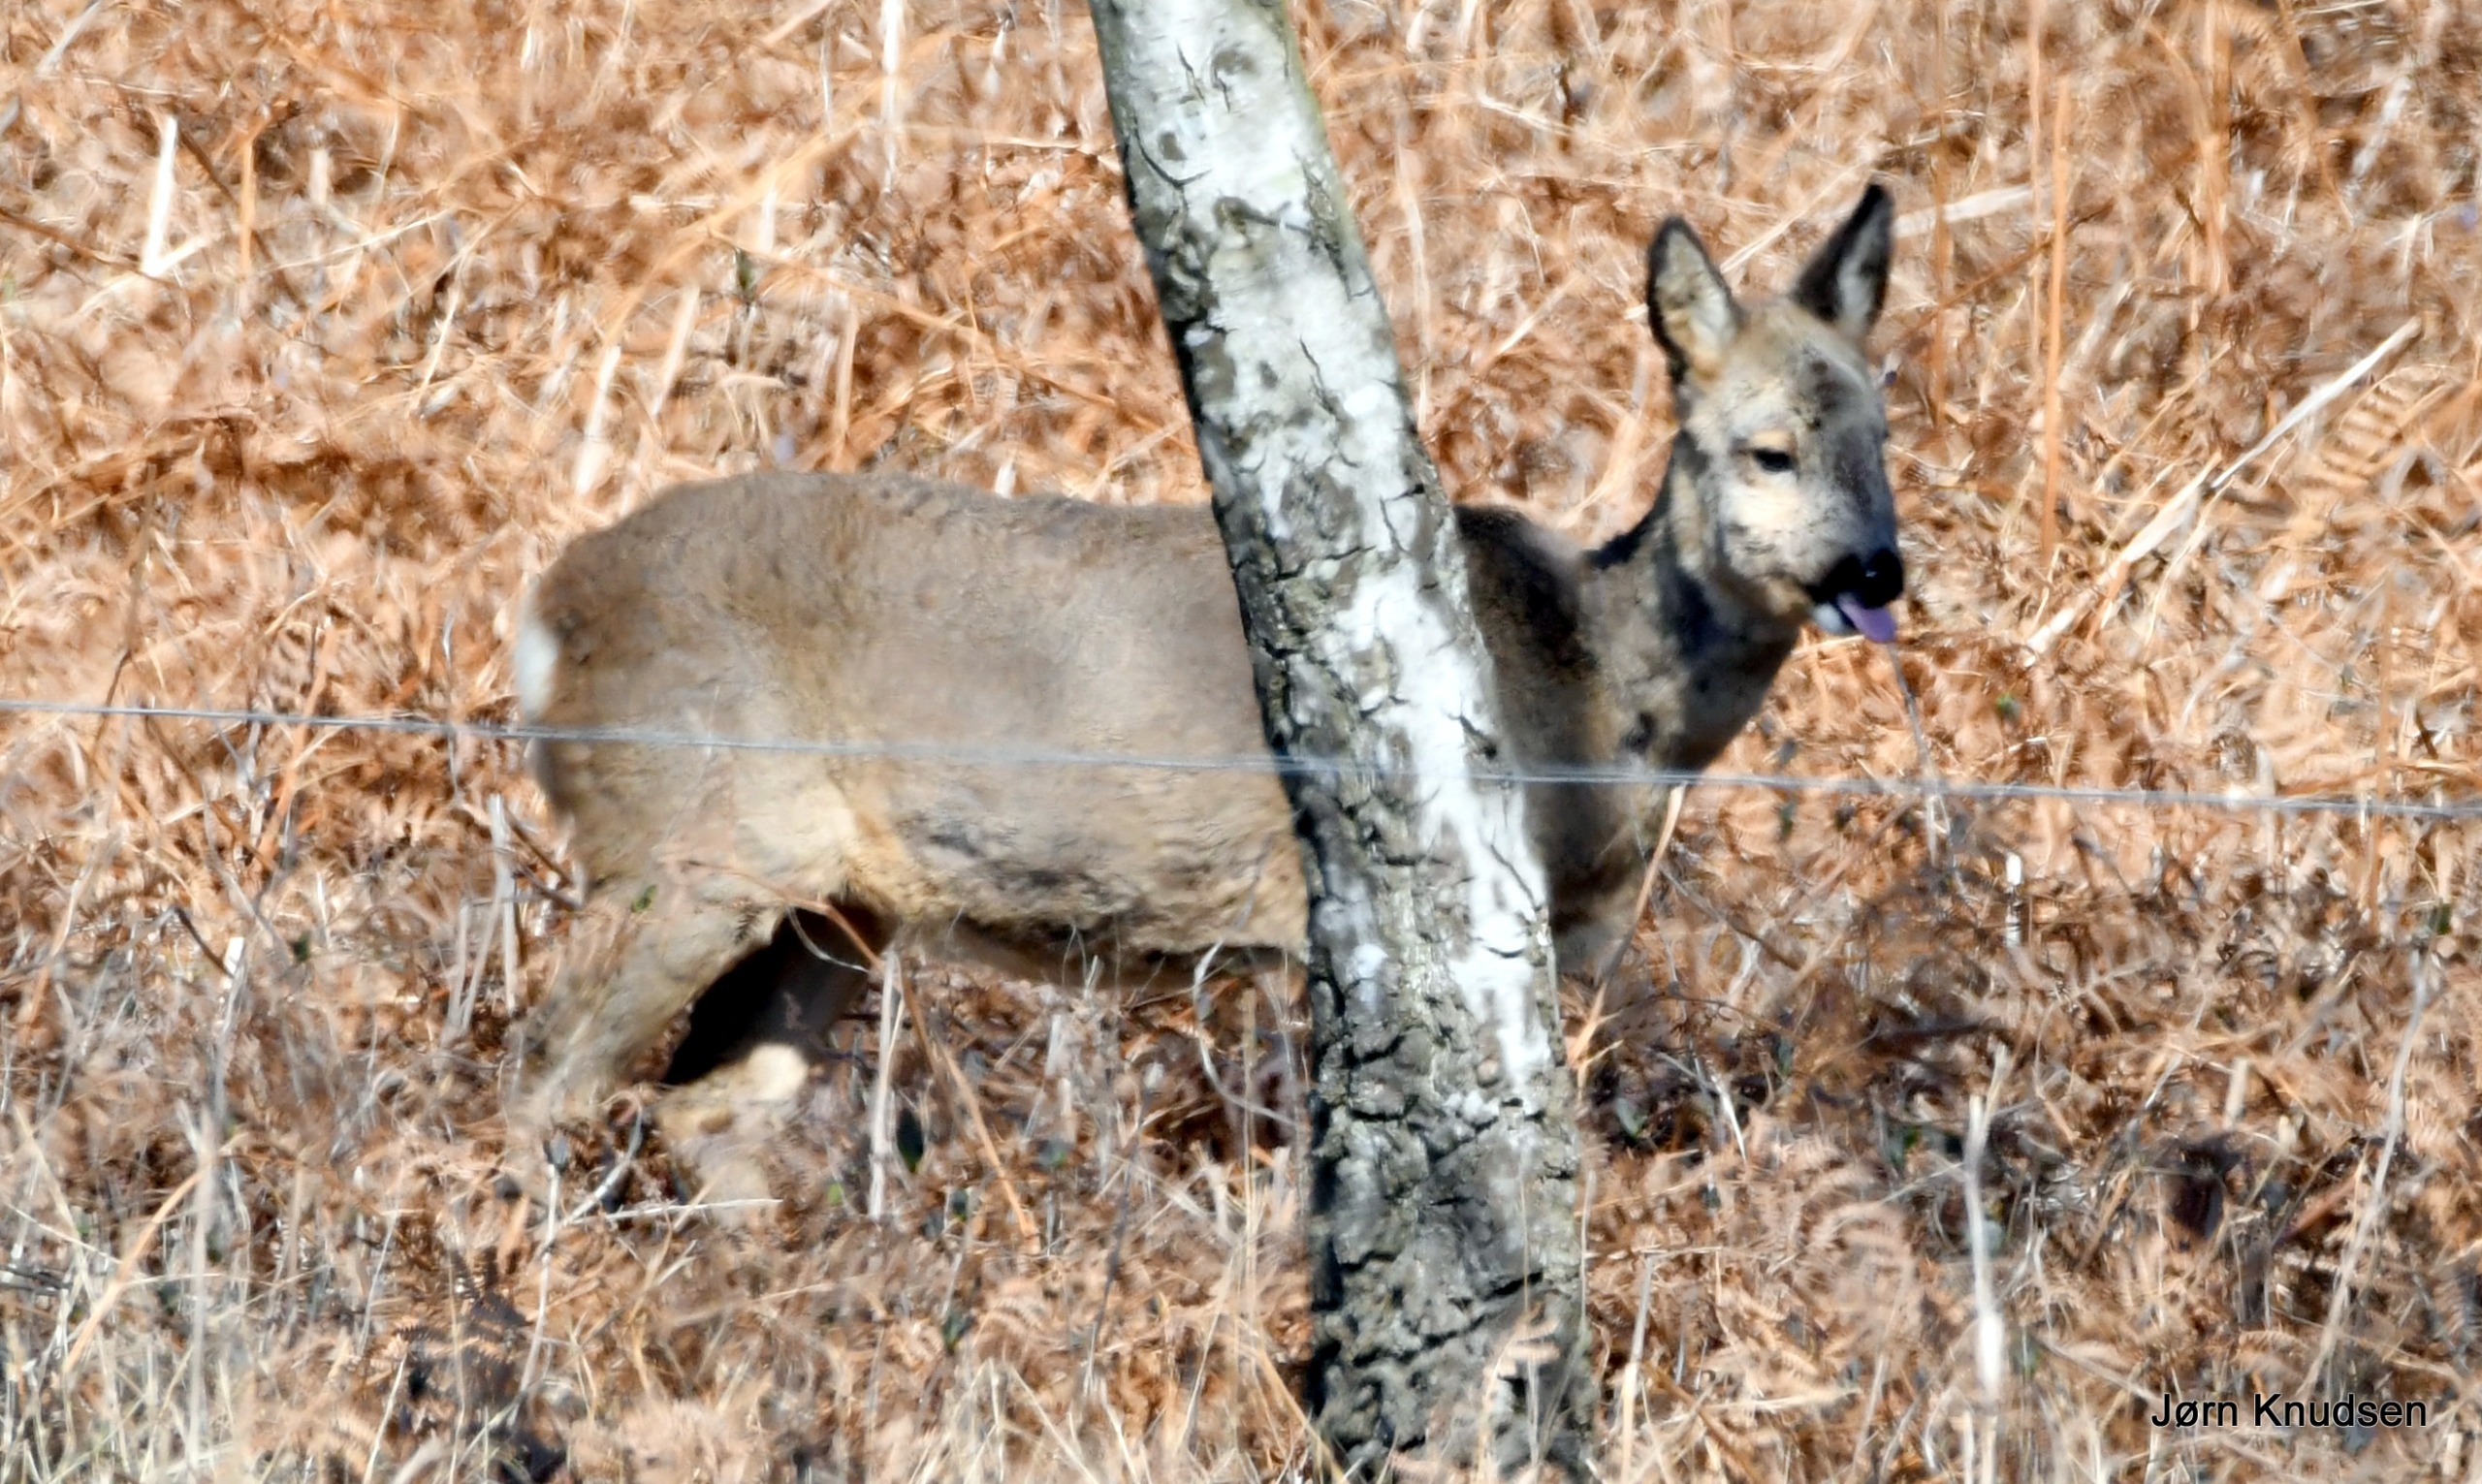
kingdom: Animalia
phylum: Chordata
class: Mammalia
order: Artiodactyla
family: Cervidae
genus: Capreolus
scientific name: Capreolus capreolus
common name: Rådyr
